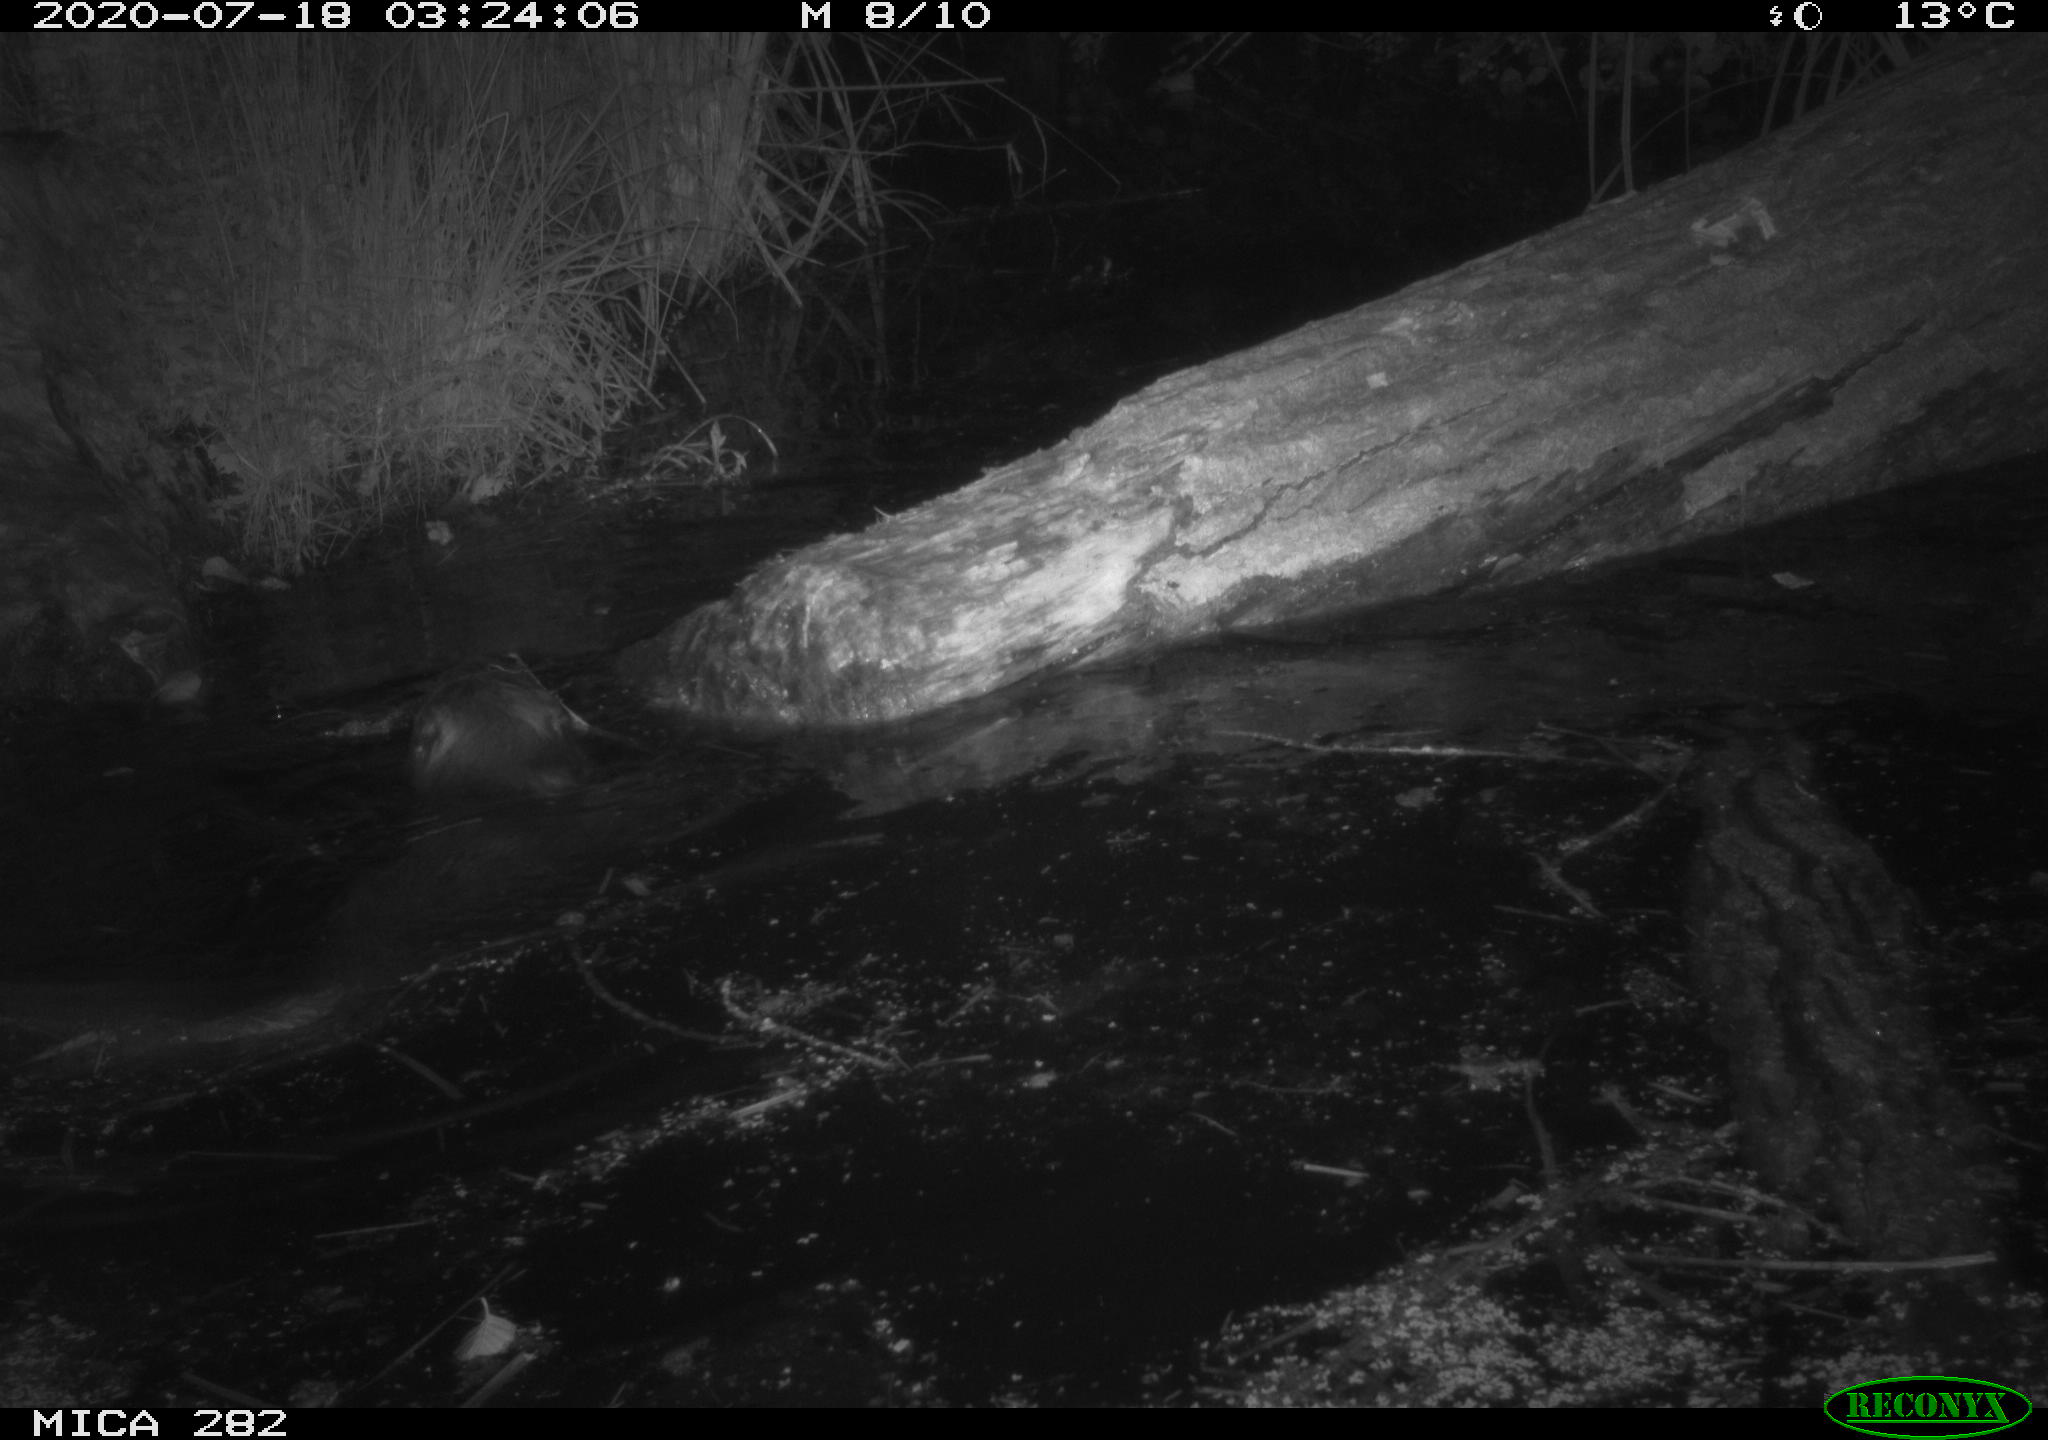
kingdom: Animalia
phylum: Chordata
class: Mammalia
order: Rodentia
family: Castoridae
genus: Castor
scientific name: Castor fiber
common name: Eurasian beaver
